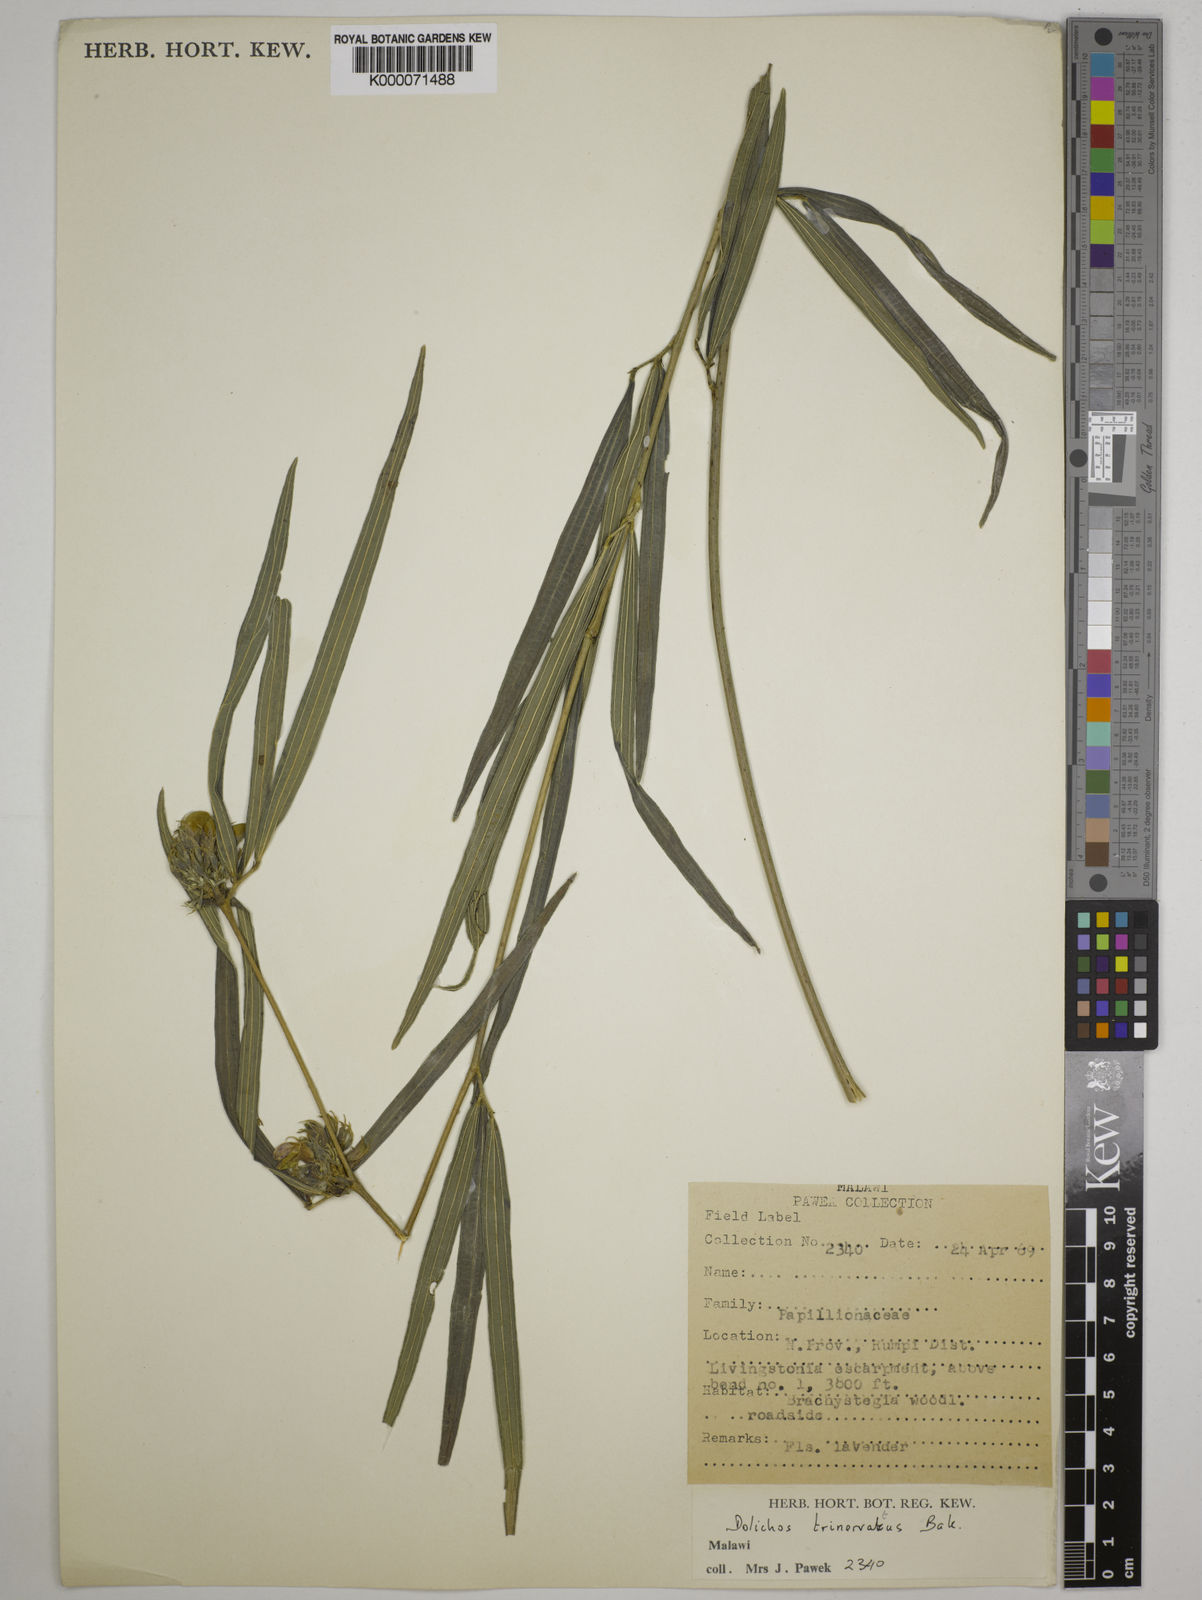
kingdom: Plantae
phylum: Tracheophyta
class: Magnoliopsida
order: Fabales
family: Fabaceae
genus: Dolichos
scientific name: Dolichos trinervatus
